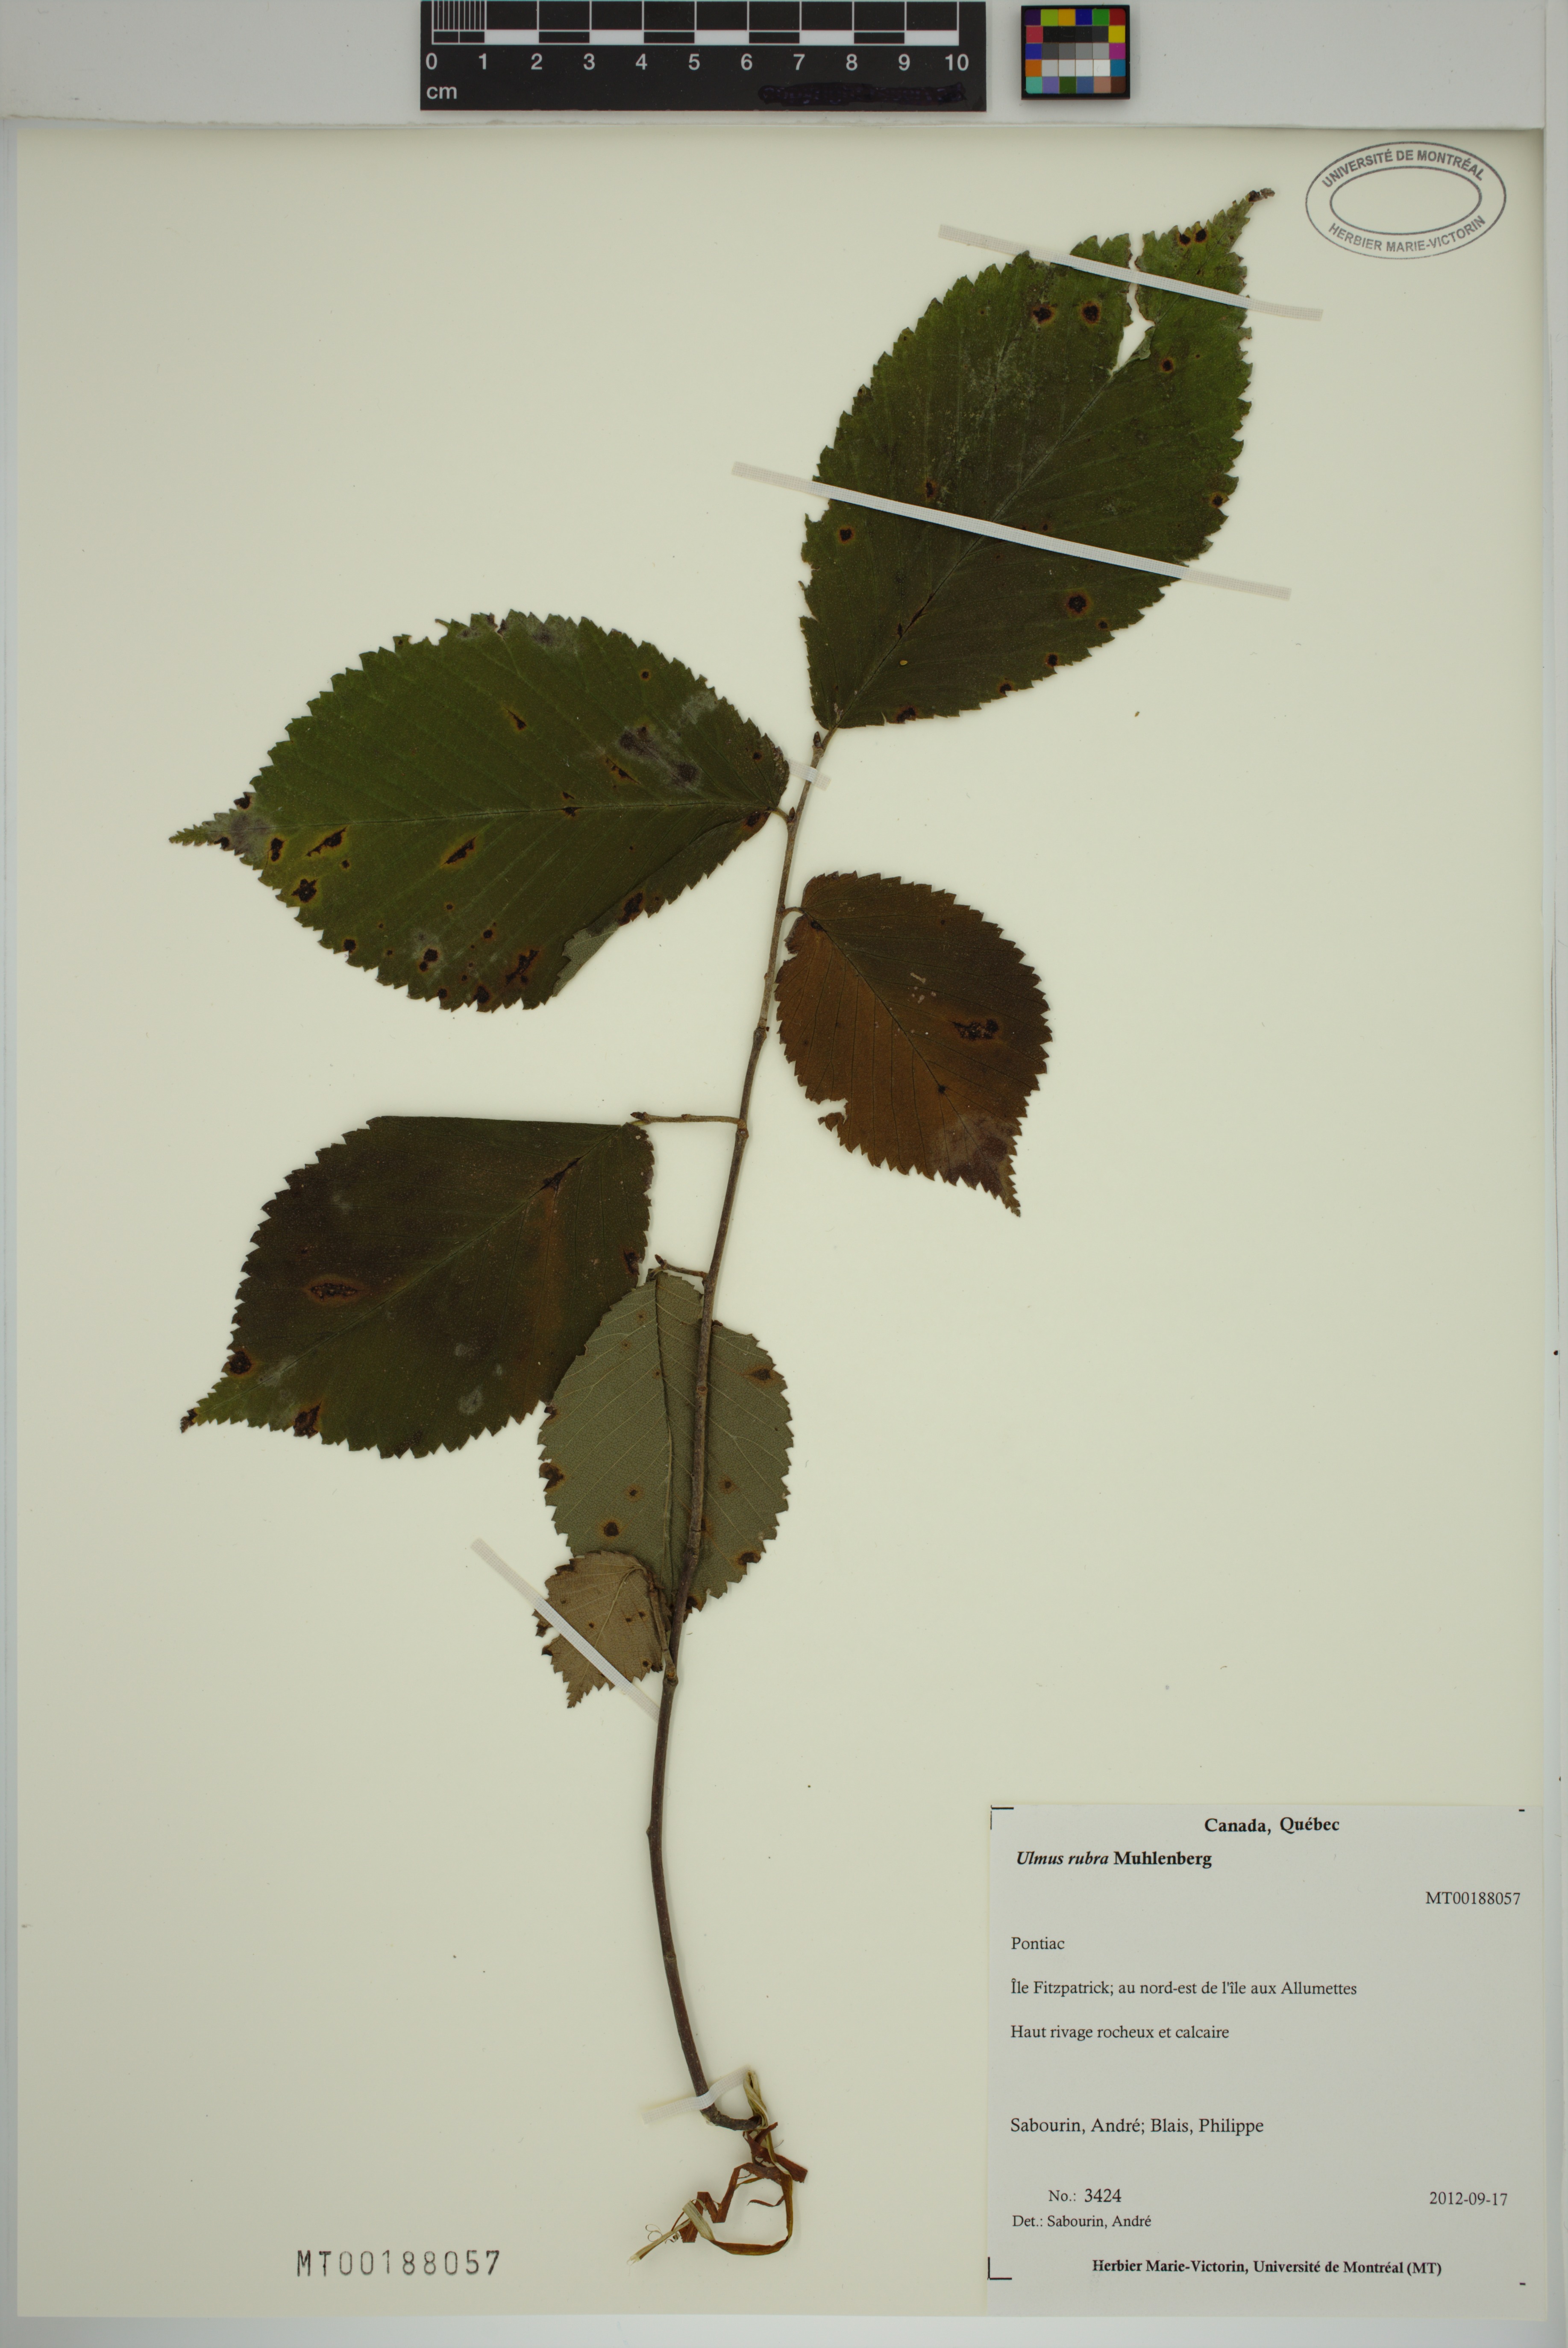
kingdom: Plantae
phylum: Tracheophyta
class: Magnoliopsida
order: Rosales
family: Ulmaceae
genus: Ulmus
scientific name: Ulmus rubra
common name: Slippery elm
